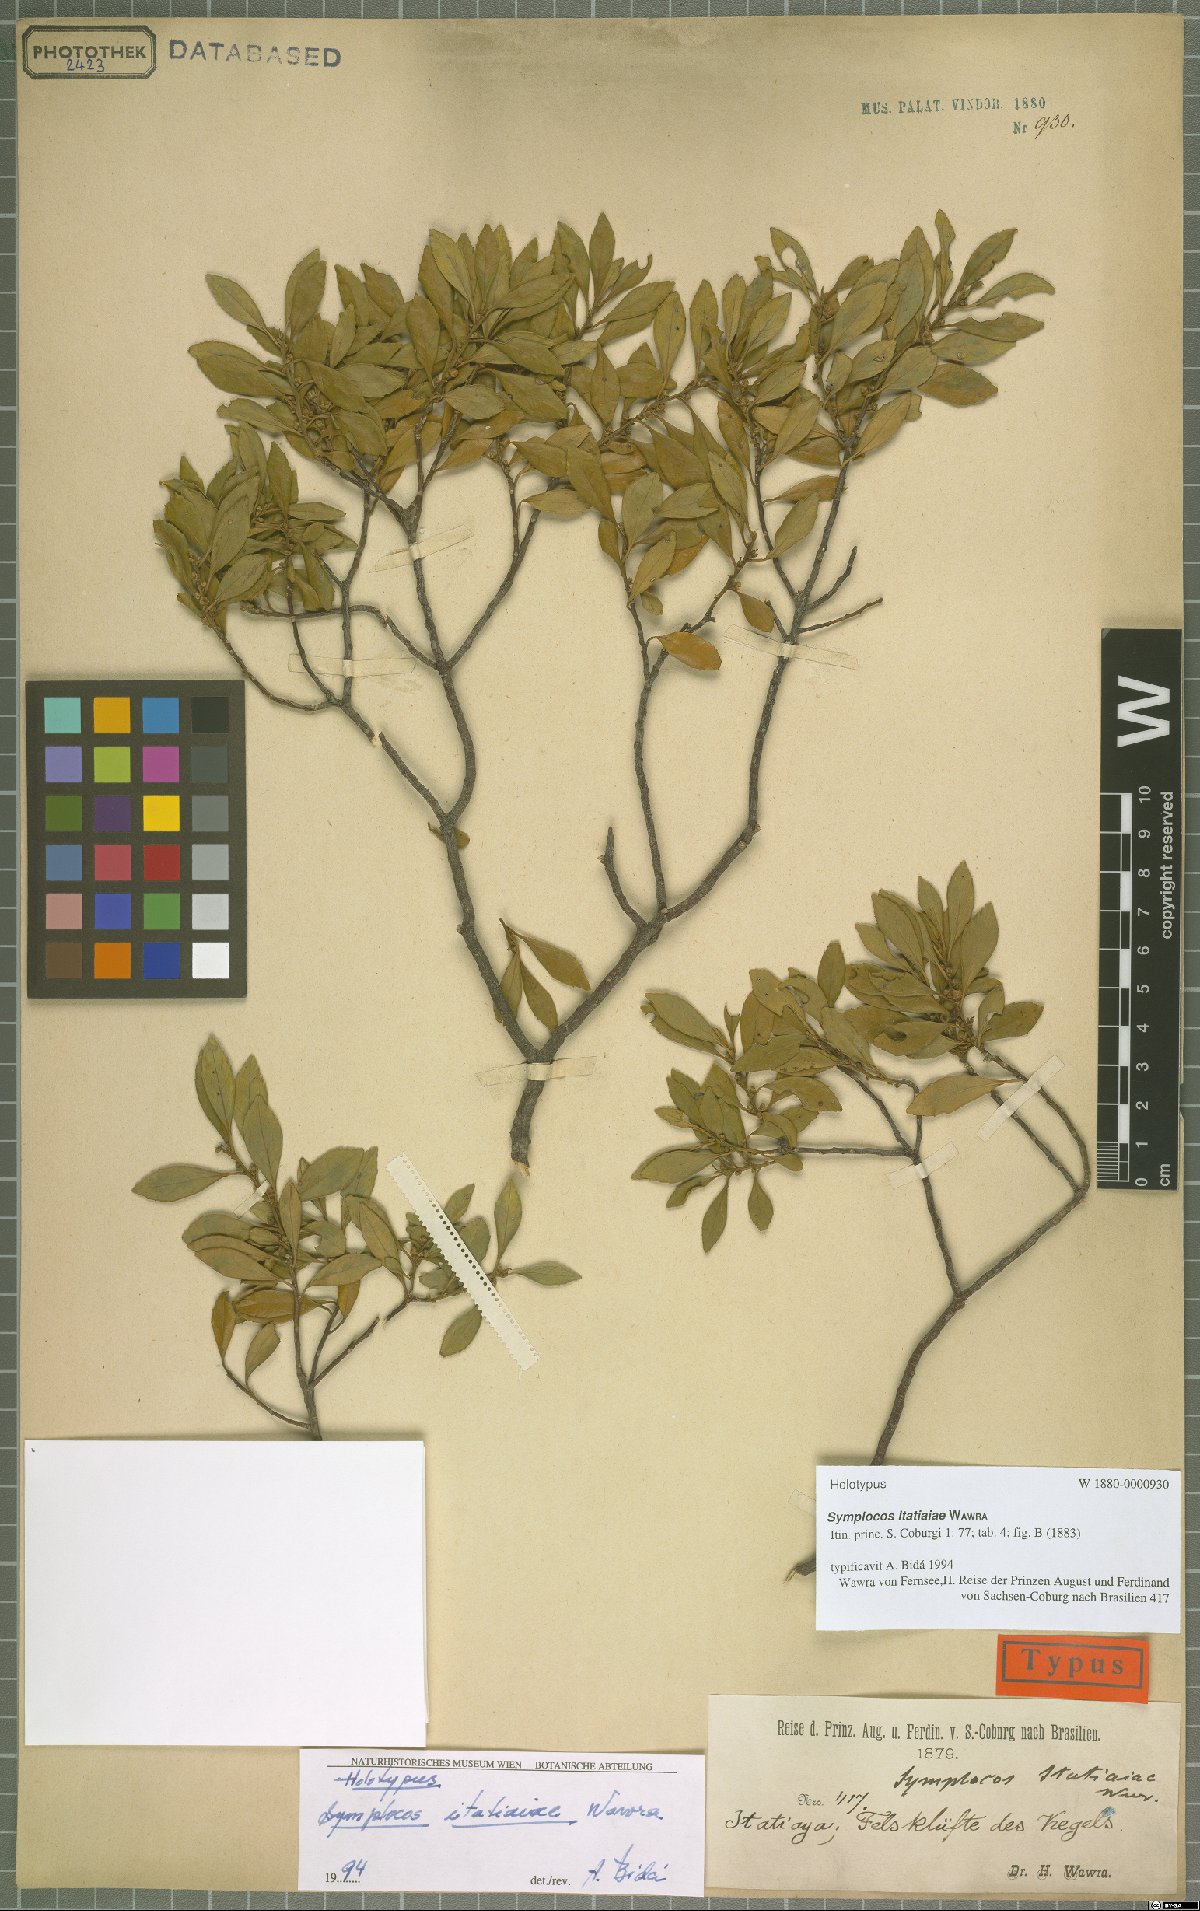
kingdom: Plantae
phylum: Tracheophyta
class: Magnoliopsida
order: Ericales
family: Symplocaceae
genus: Symplocos
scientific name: Symplocos itatiaiae
